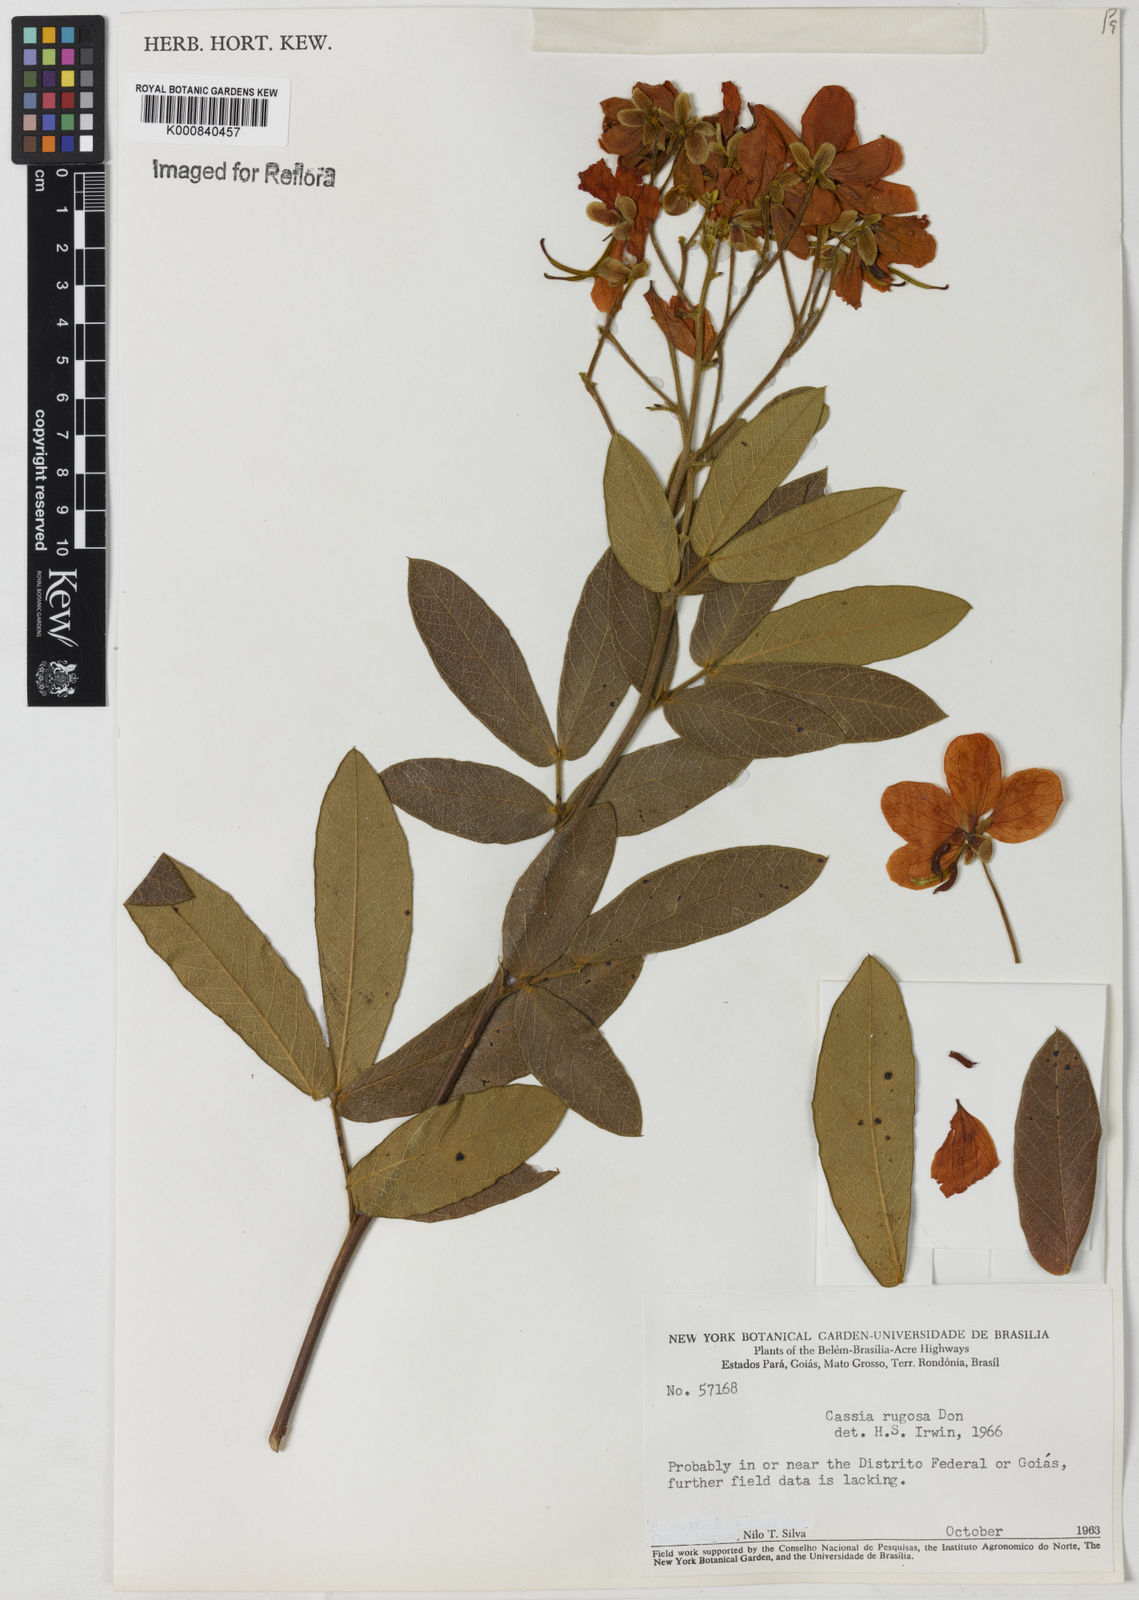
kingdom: Plantae
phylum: Tracheophyta
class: Magnoliopsida
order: Fabales
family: Fabaceae
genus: Senna
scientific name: Senna rugosa
